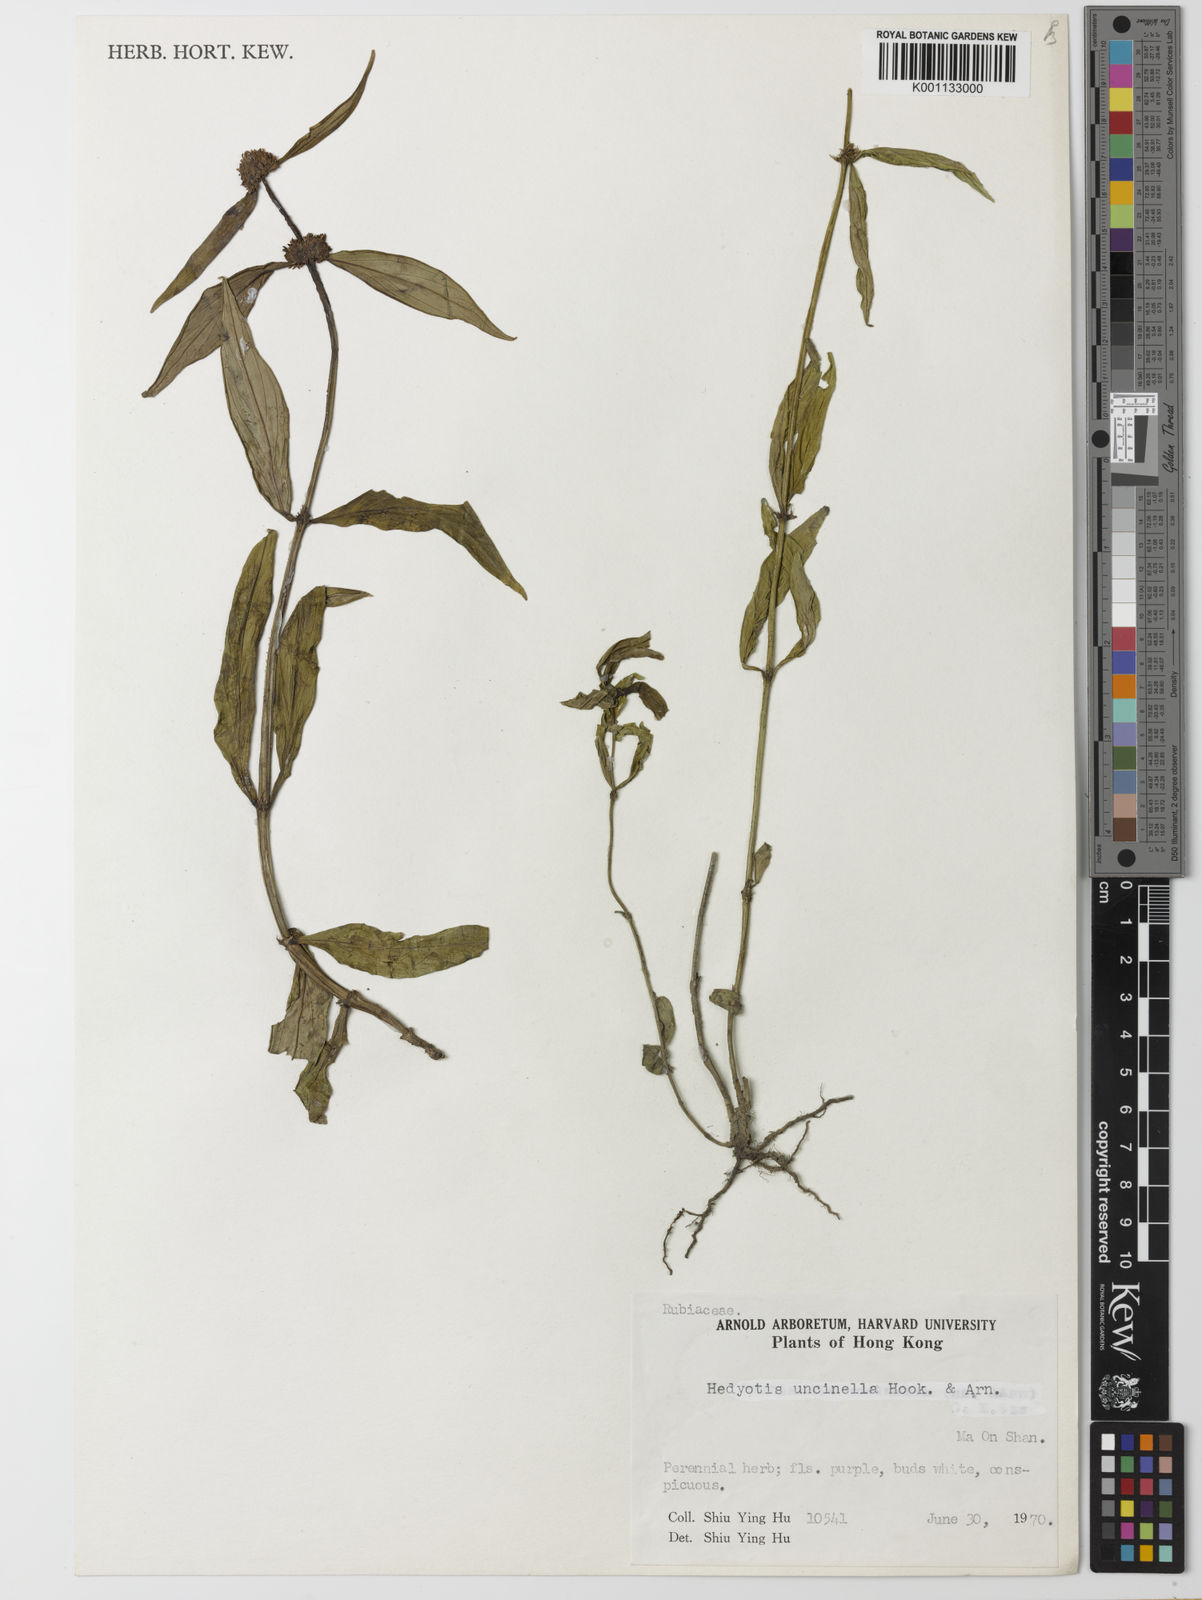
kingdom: Plantae
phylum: Tracheophyta
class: Magnoliopsida
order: Gentianales
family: Rubiaceae
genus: Hedyotis
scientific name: Hedyotis uncinella
